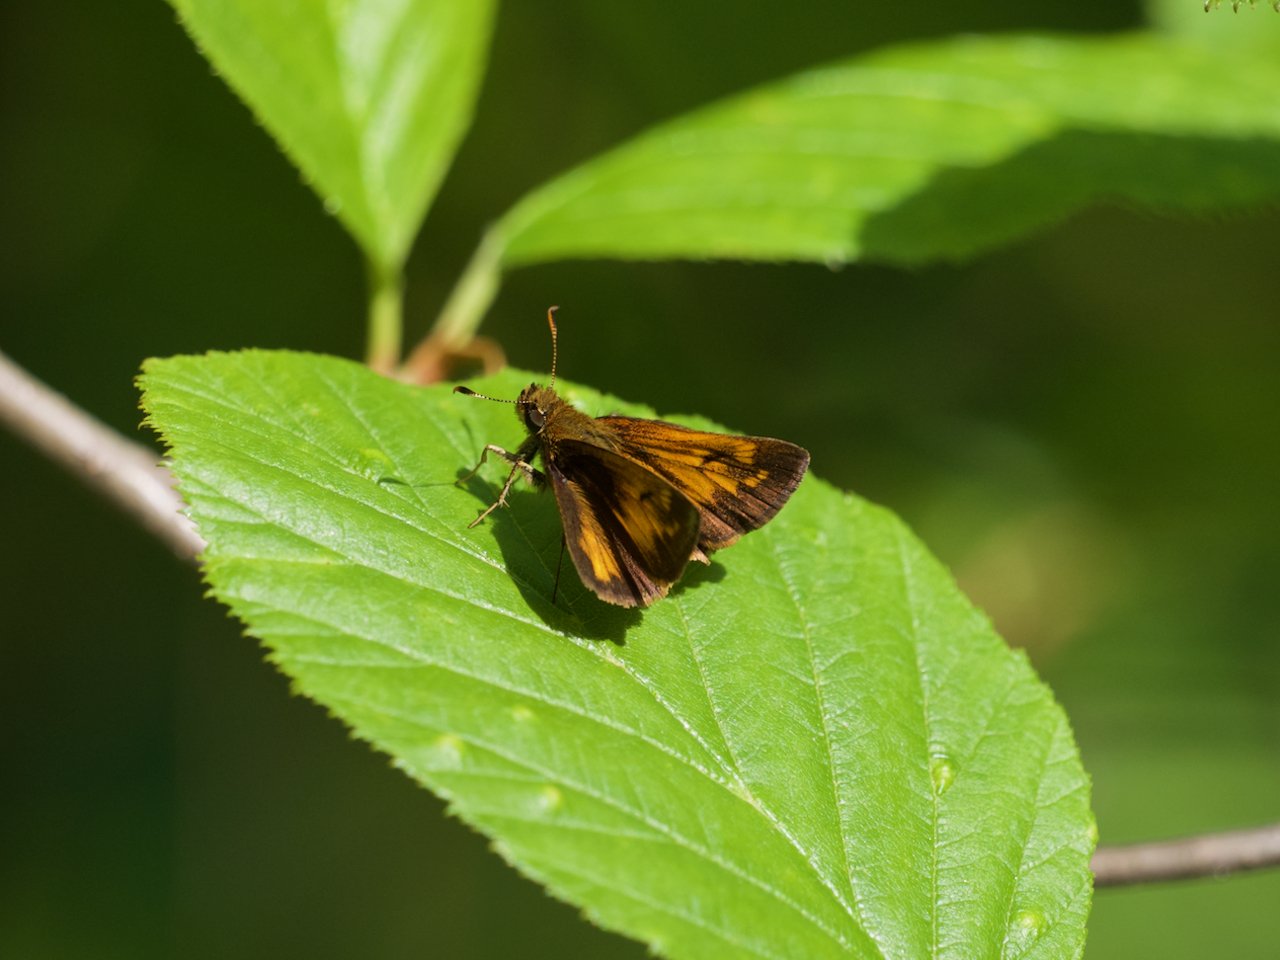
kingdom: Animalia
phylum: Arthropoda
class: Insecta
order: Lepidoptera
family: Hesperiidae
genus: Lon
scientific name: Lon hobomok
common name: Hobomok Skipper
